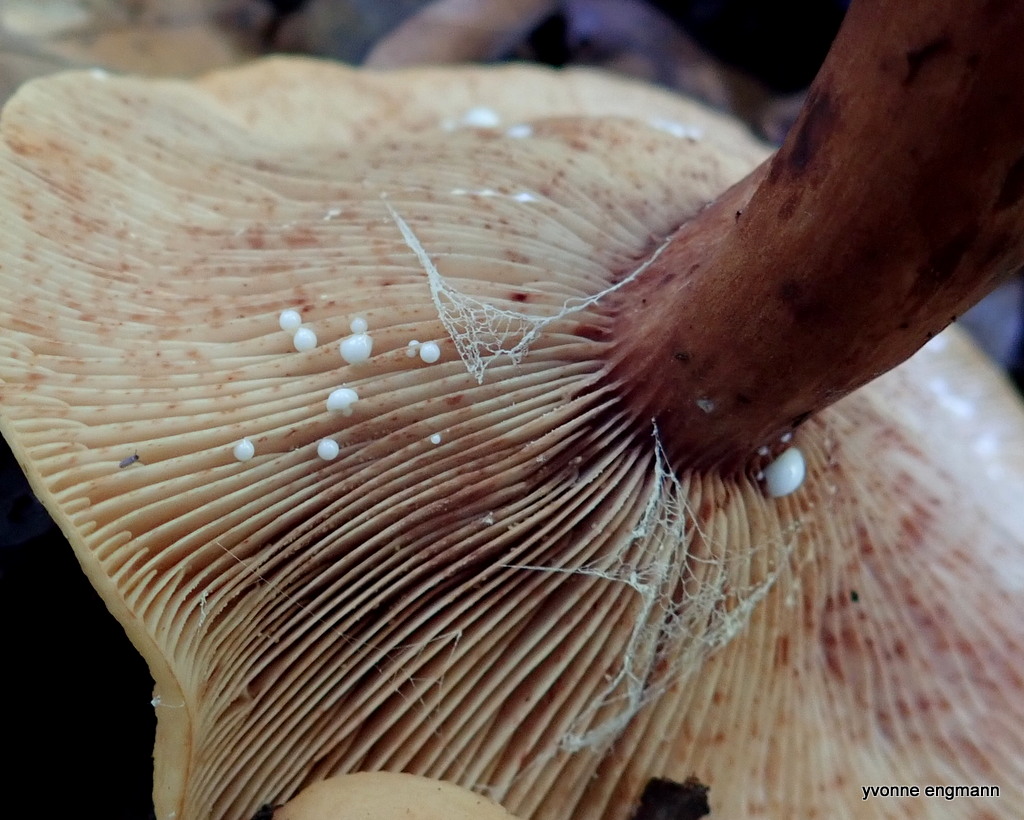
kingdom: Fungi
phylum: Basidiomycota
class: Agaricomycetes
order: Russulales
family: Russulaceae
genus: Lactarius
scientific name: Lactarius rubrocinctus
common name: halsbånd-mælkehat
